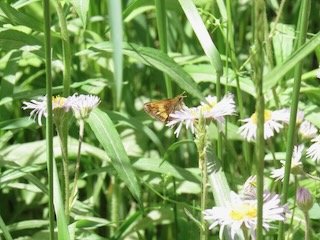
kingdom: Animalia
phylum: Arthropoda
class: Insecta
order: Lepidoptera
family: Hesperiidae
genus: Lon
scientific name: Lon hobomok
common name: Hobomok Skipper
